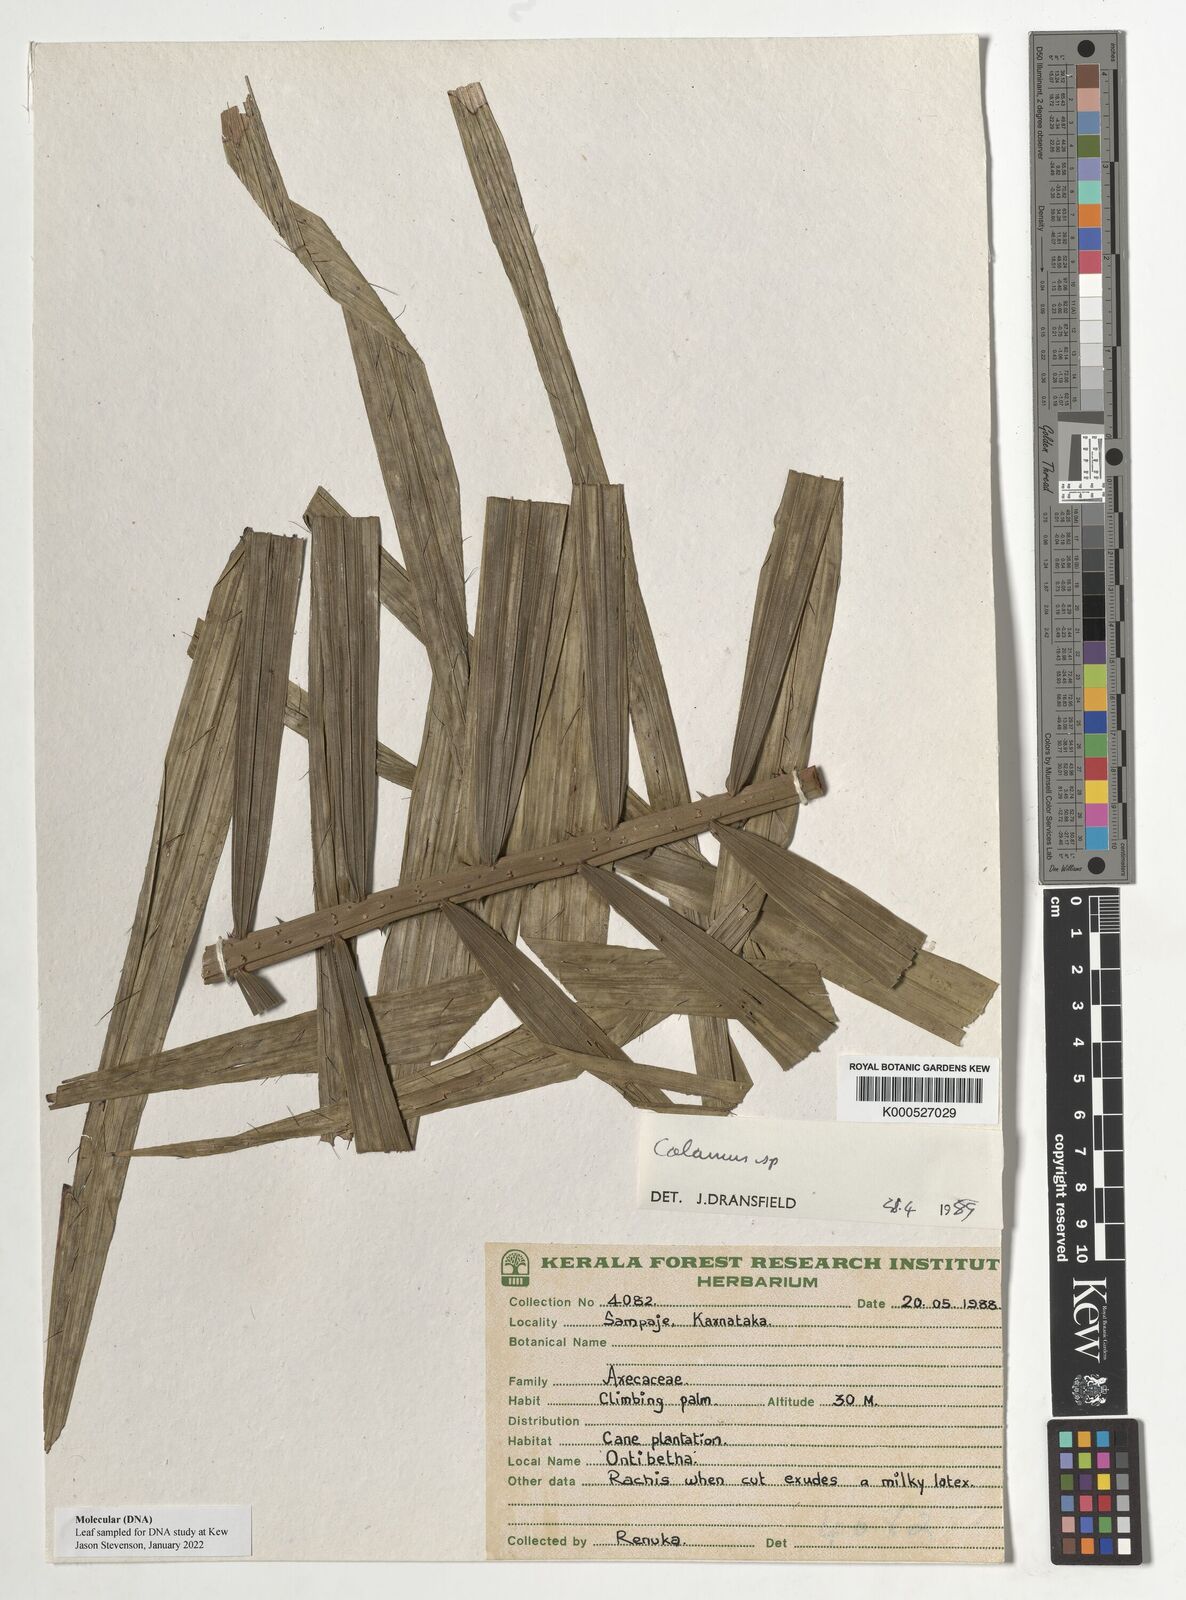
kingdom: Plantae
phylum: Tracheophyta
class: Liliopsida
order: Arecales
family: Arecaceae
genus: Calamus
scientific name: Calamus gamblei
